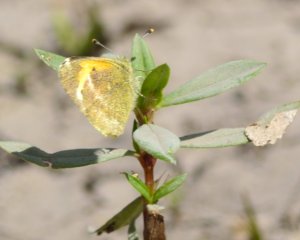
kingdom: Animalia
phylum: Arthropoda
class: Insecta
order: Lepidoptera
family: Pieridae
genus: Nathalis
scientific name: Nathalis iole
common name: Dainty Sulphur
